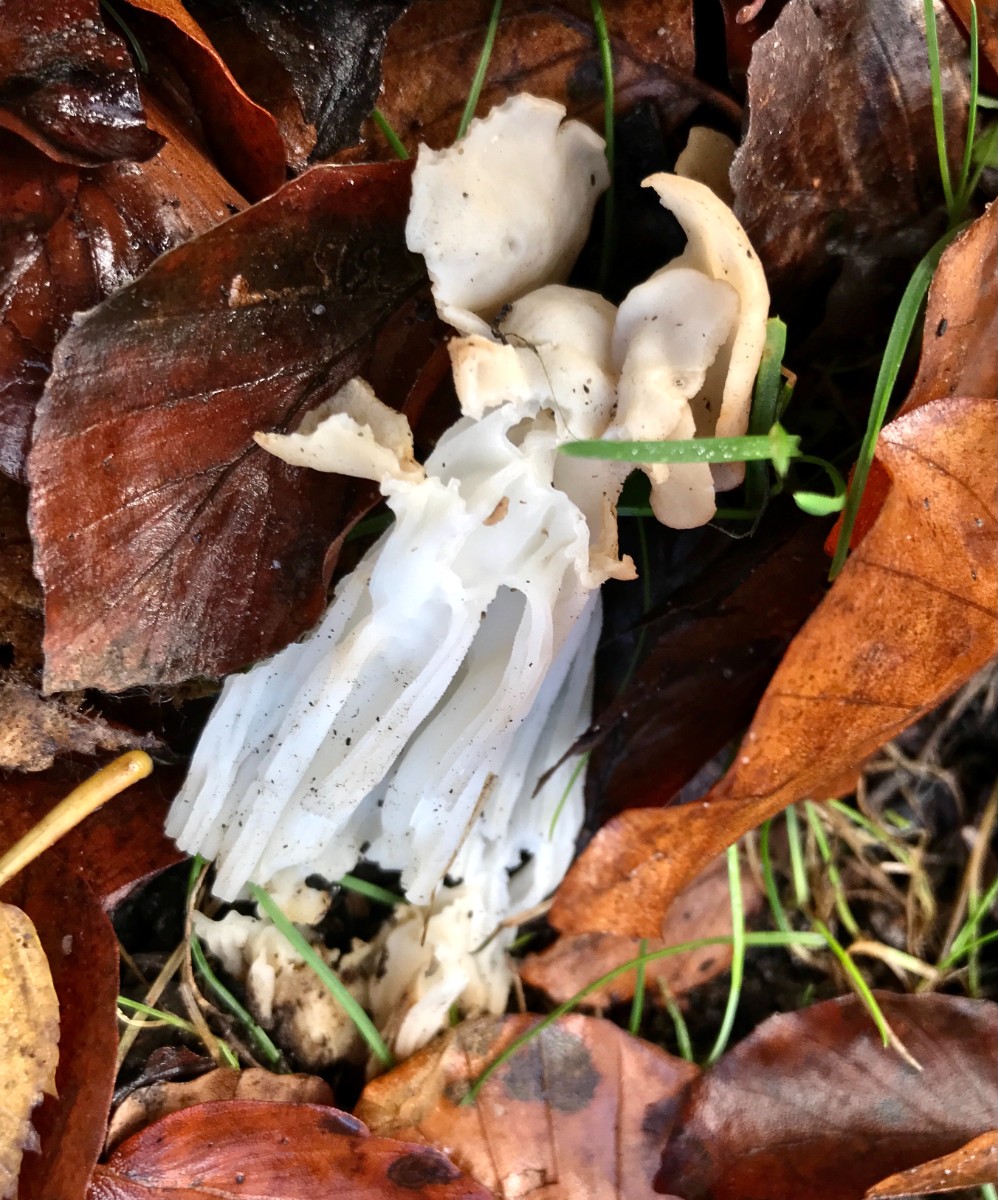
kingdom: Fungi
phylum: Ascomycota
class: Pezizomycetes
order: Pezizales
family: Helvellaceae
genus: Helvella
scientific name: Helvella crispa
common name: kruset foldhat
